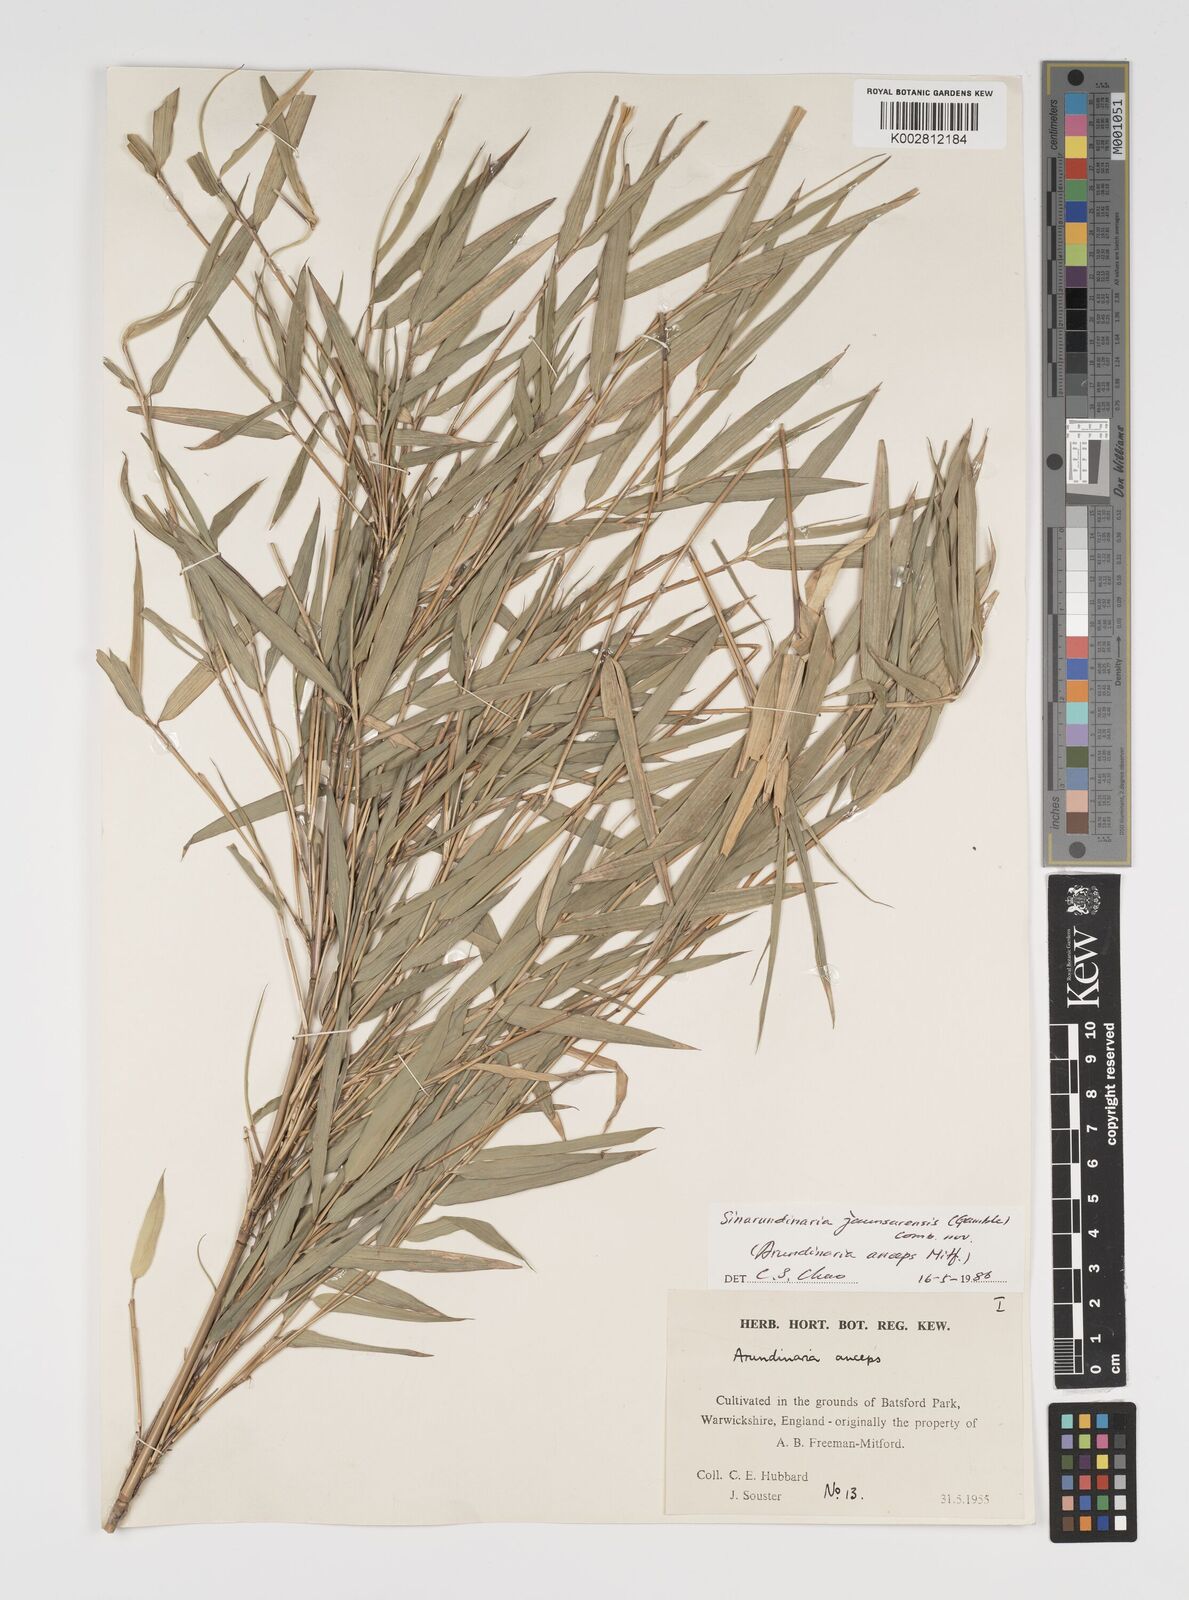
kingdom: Plantae
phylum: Tracheophyta
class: Liliopsida
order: Poales
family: Poaceae
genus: Yushania
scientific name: Yushania anceps
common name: Indian fountain-bamboo
